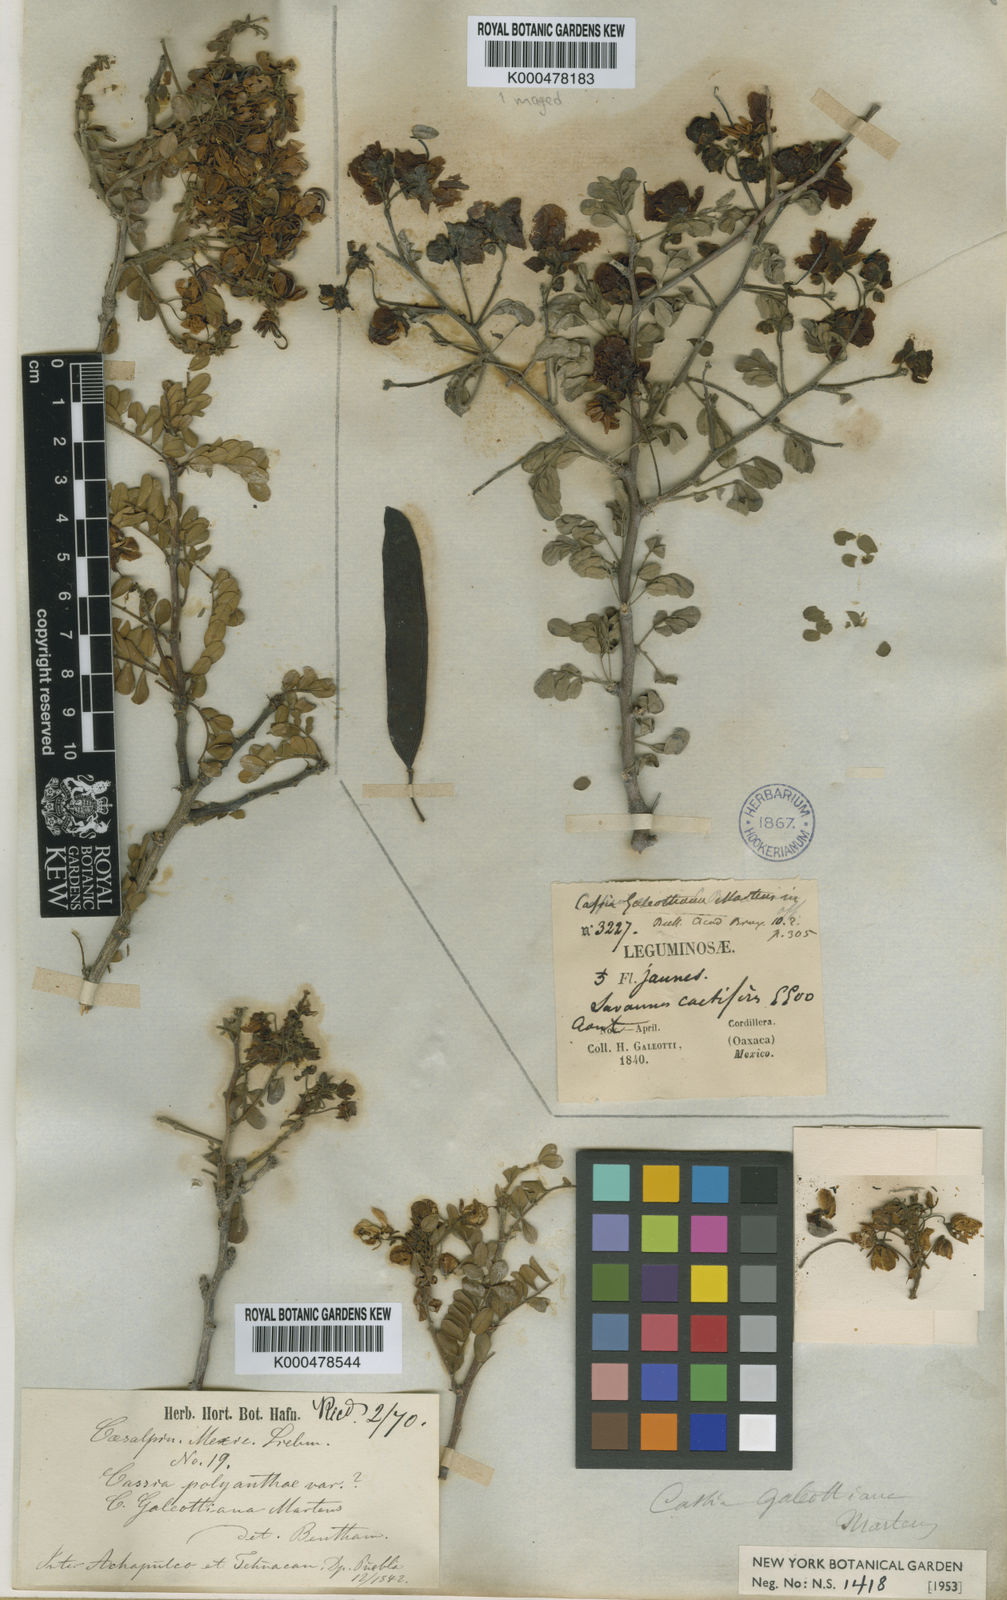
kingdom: Plantae
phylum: Tracheophyta
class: Magnoliopsida
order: Fabales
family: Fabaceae
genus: Senna
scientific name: Senna galeottiana
